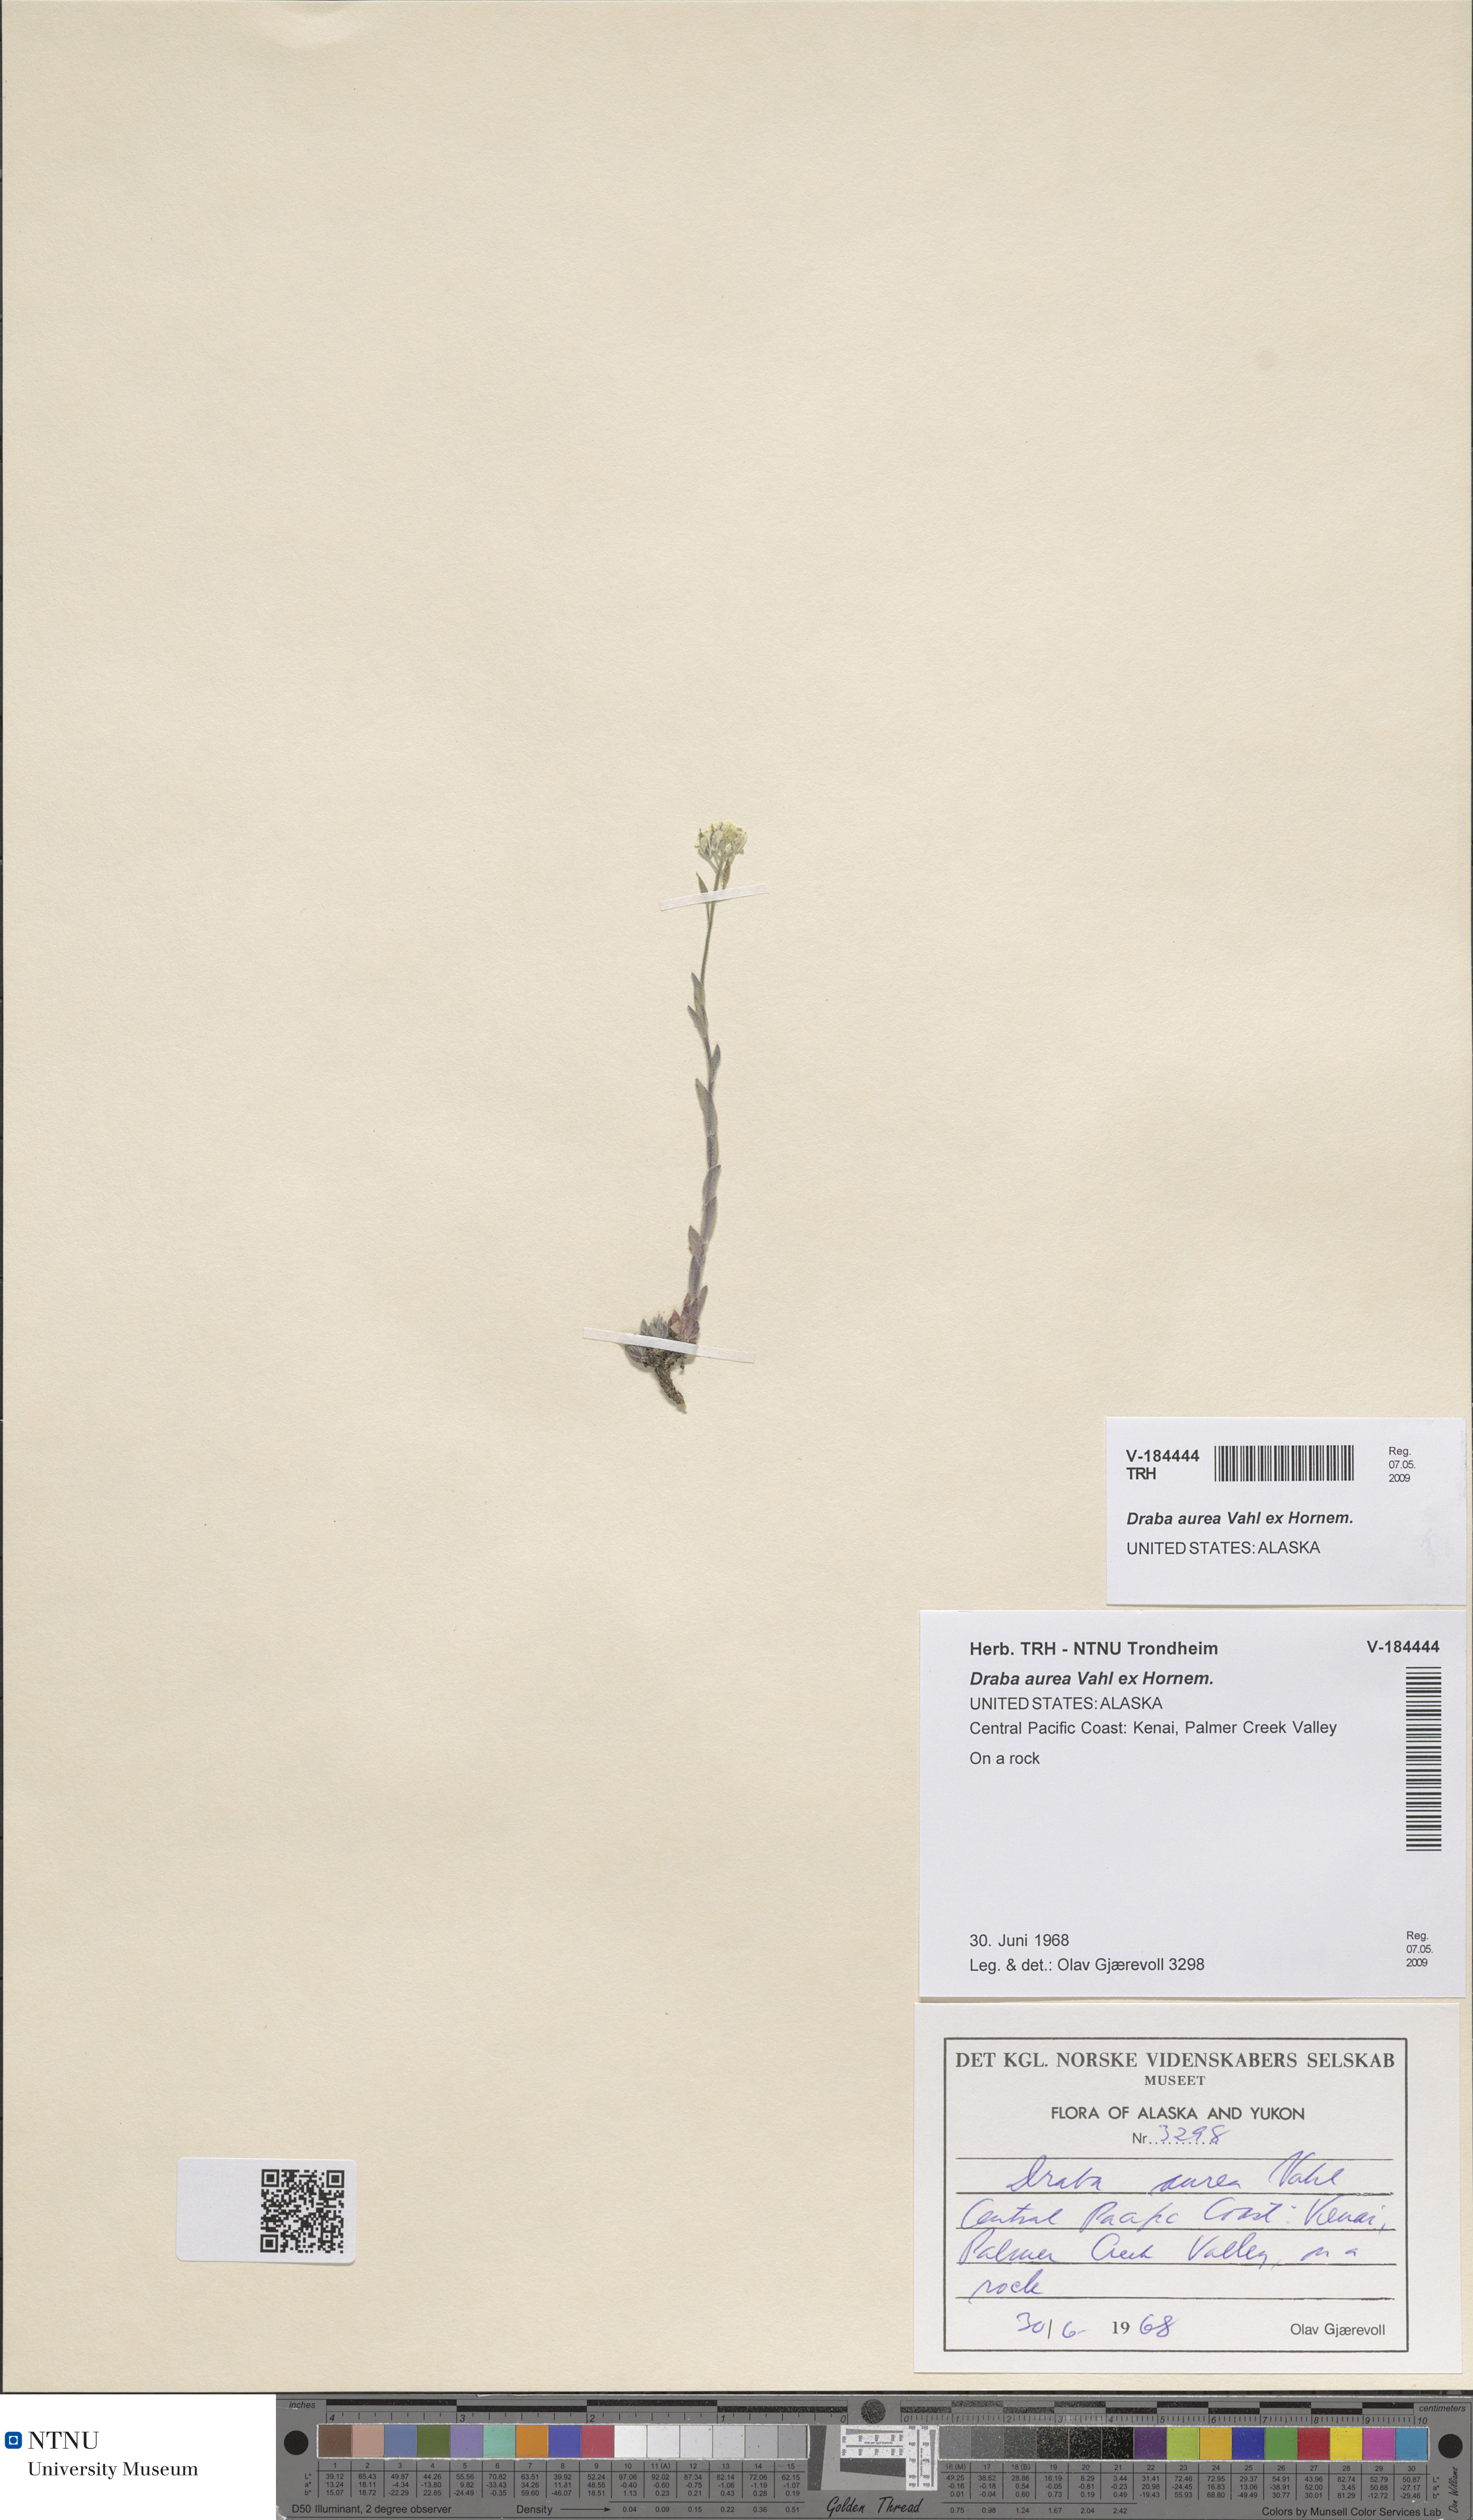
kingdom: Plantae
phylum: Tracheophyta
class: Magnoliopsida
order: Brassicales
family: Brassicaceae
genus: Draba
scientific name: Draba aurea
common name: Golden draba
